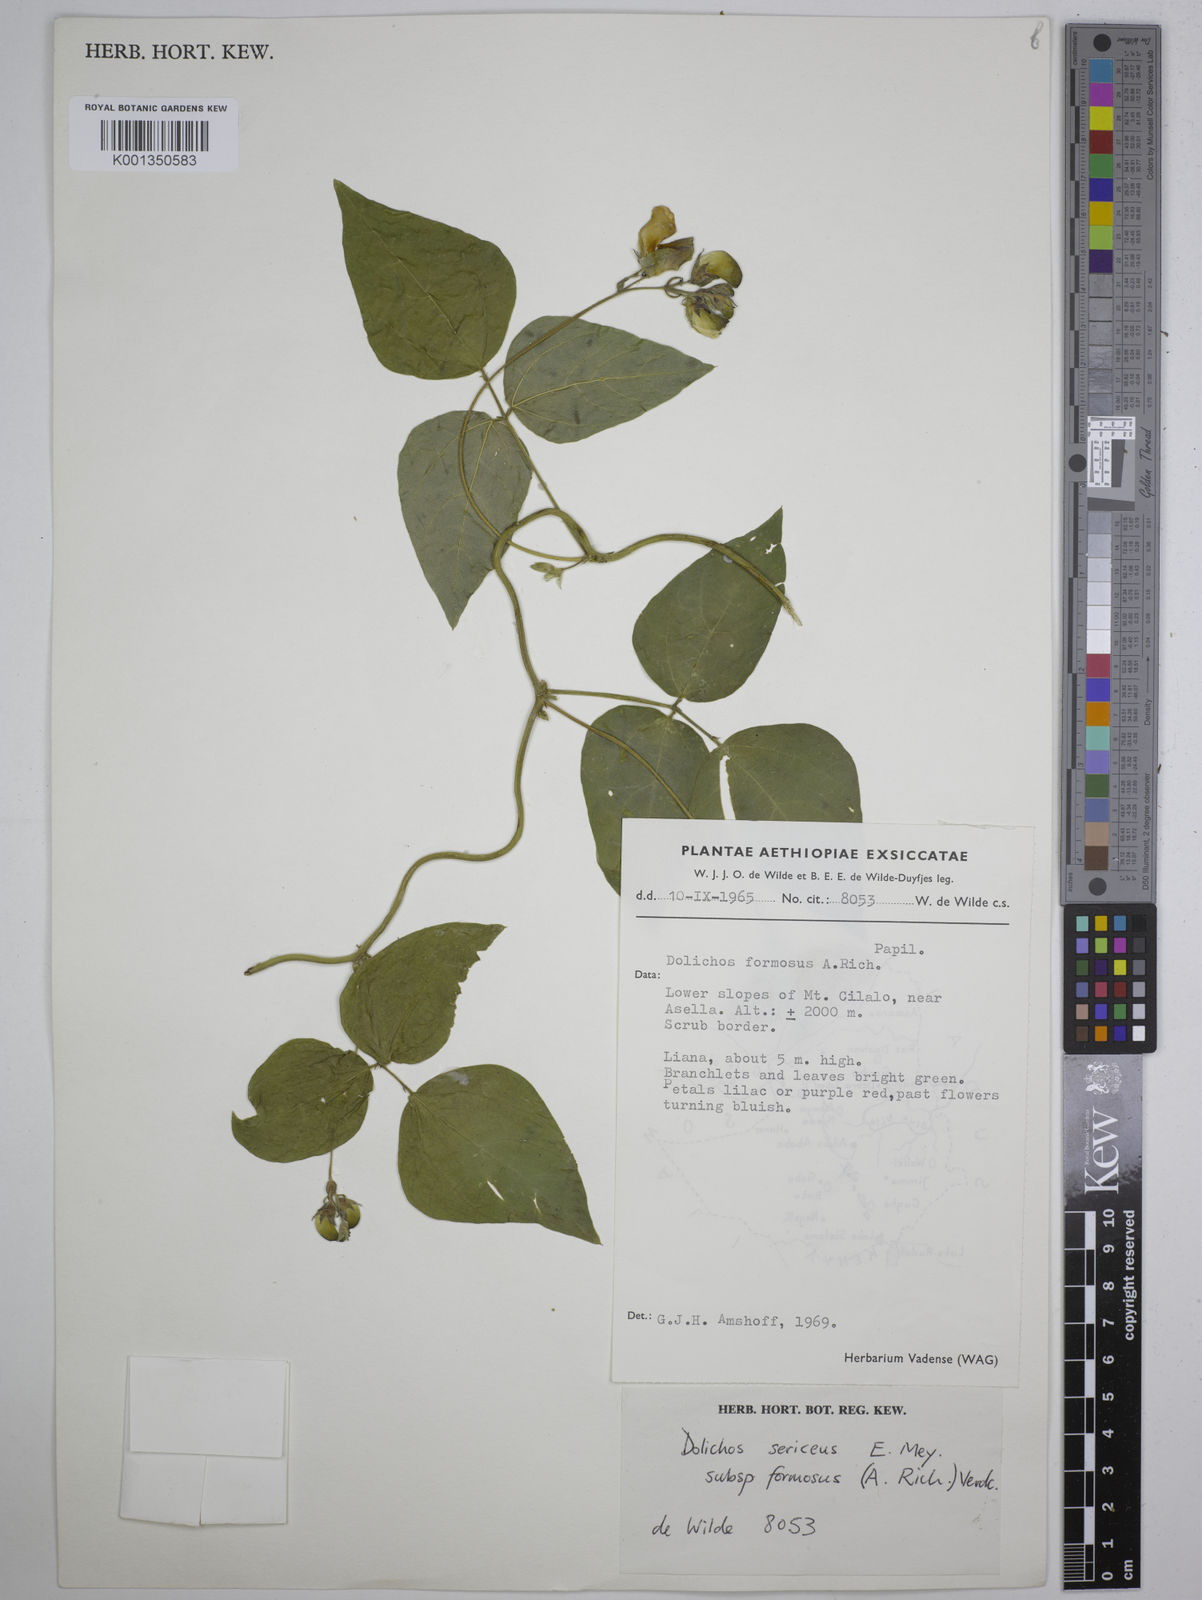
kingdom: Plantae
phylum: Tracheophyta
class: Magnoliopsida
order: Fabales
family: Fabaceae
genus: Dolichos
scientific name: Dolichos
